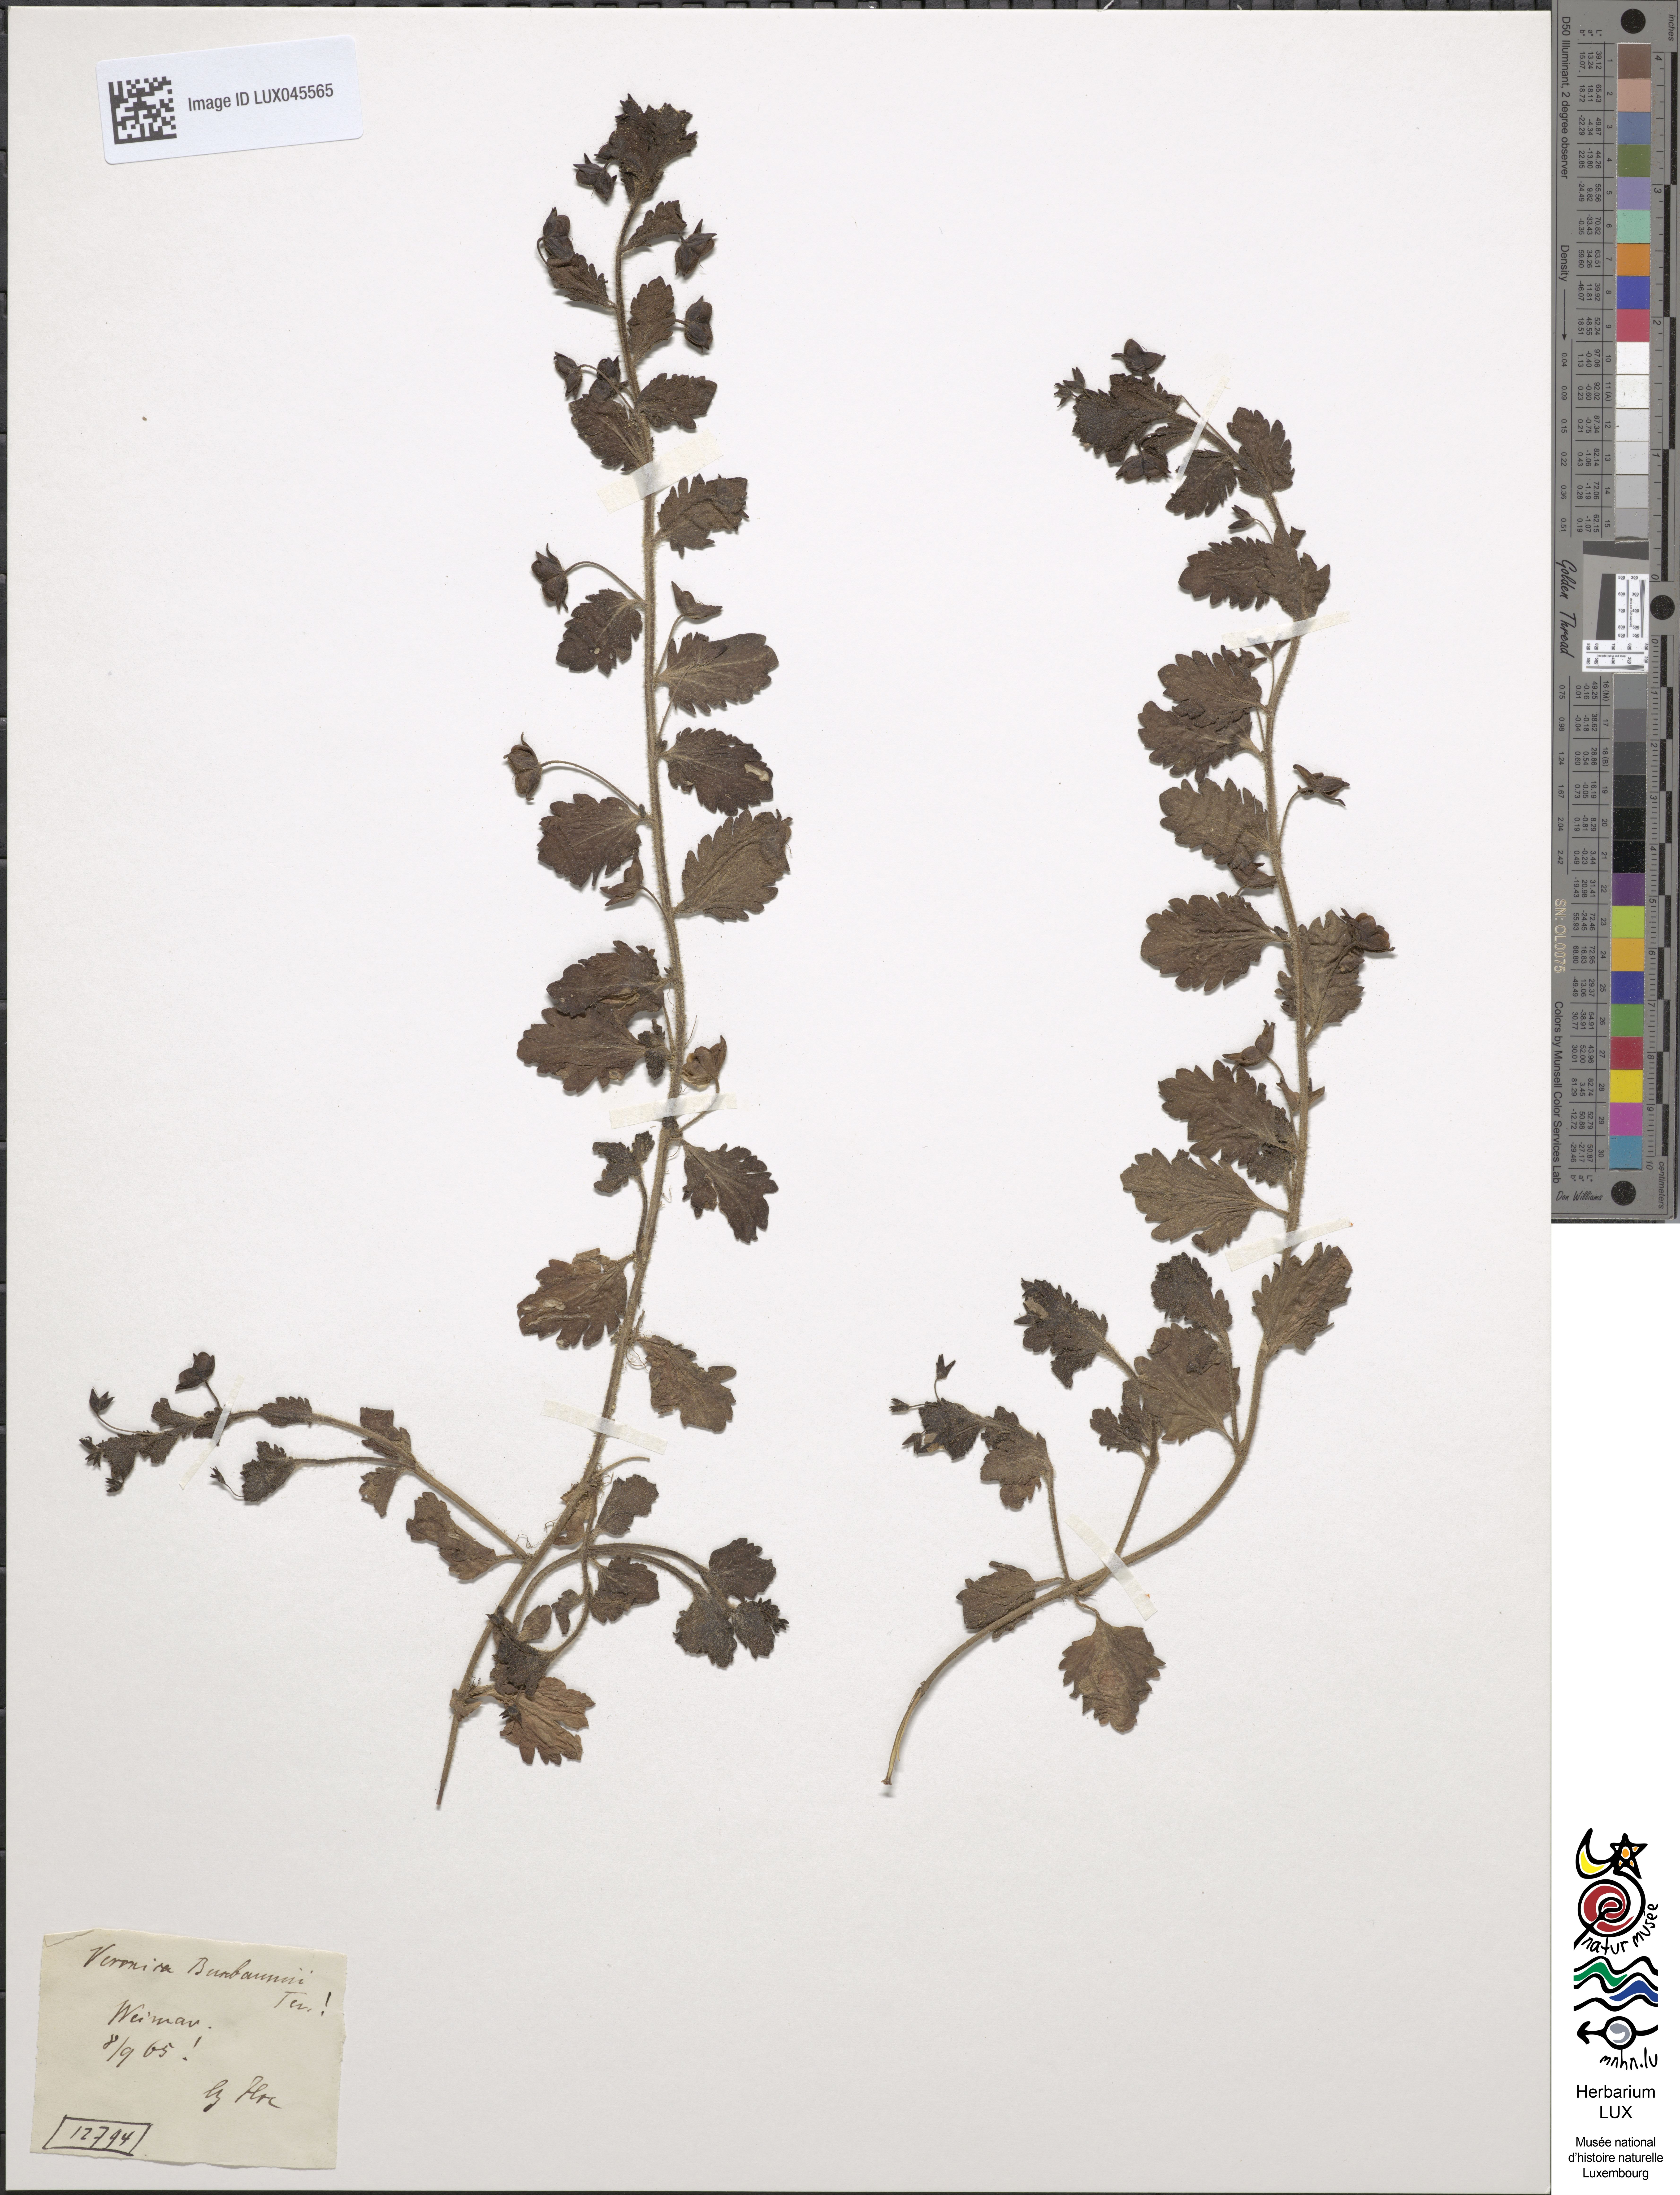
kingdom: Plantae
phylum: Tracheophyta
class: Magnoliopsida
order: Lamiales
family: Plantaginaceae
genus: Veronica
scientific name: Veronica persica
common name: Common field-speedwell
